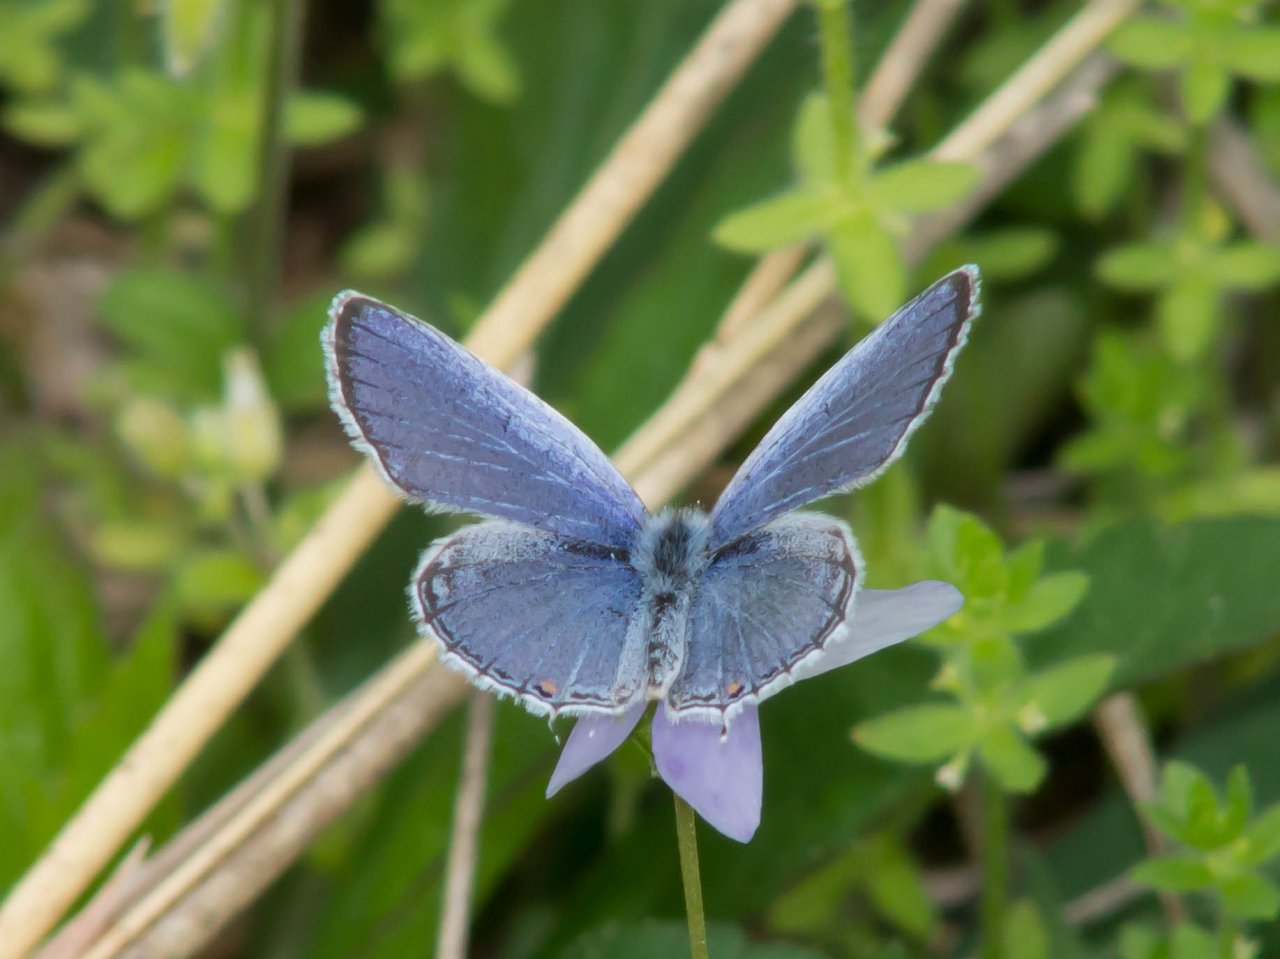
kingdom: Animalia
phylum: Arthropoda
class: Insecta
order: Lepidoptera
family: Lycaenidae
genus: Elkalyce
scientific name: Elkalyce comyntas
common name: Eastern Tailed-Blue
